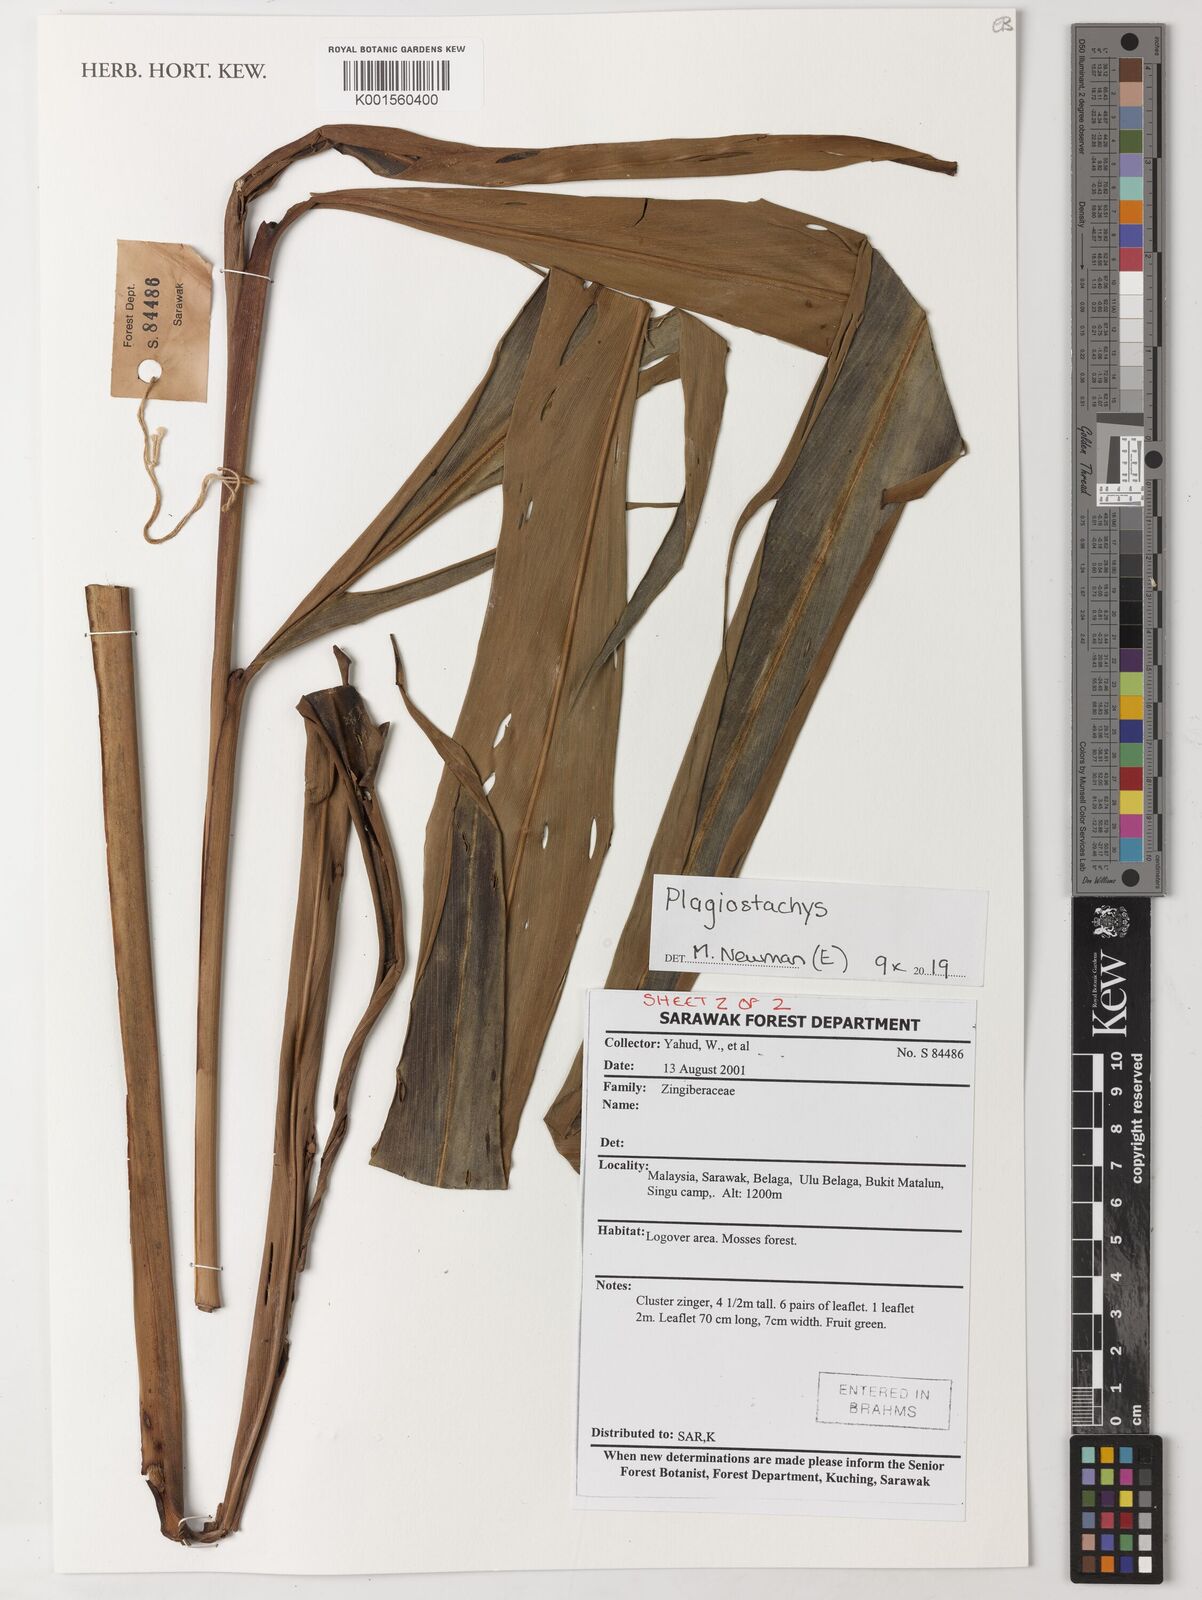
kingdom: Plantae
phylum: Tracheophyta
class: Liliopsida
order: Zingiberales
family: Zingiberaceae
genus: Plagiostachys
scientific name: Plagiostachys
